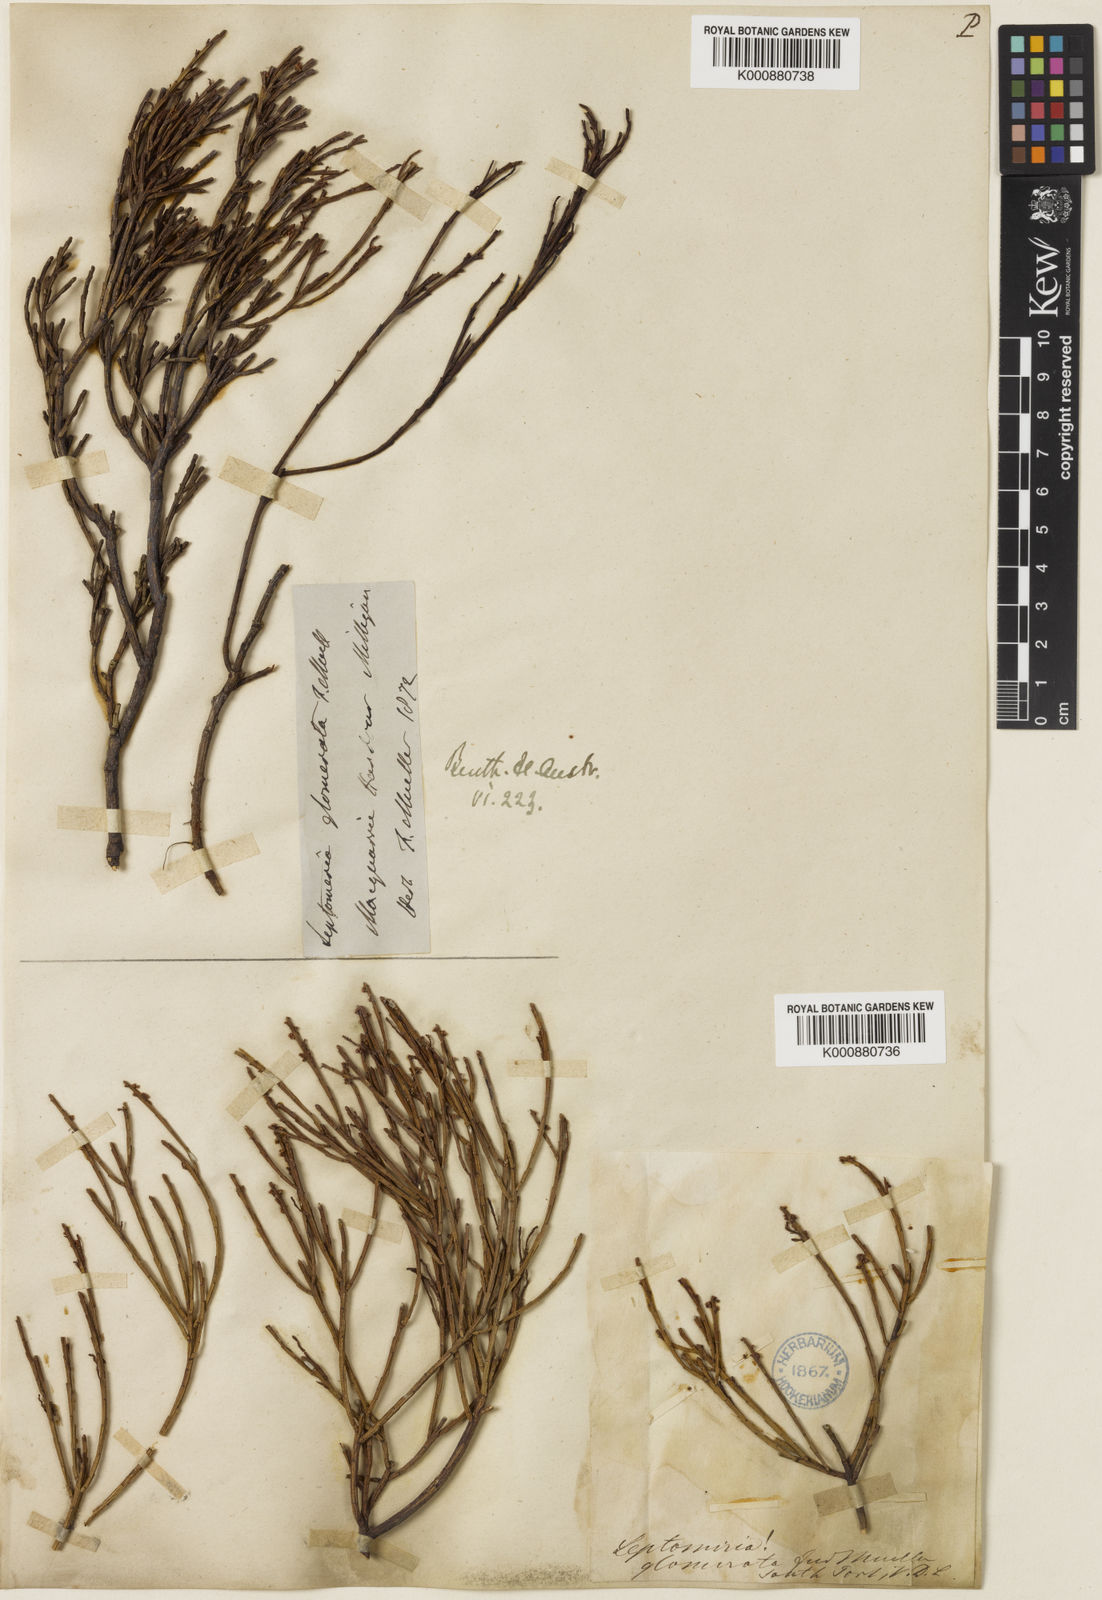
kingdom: Plantae
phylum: Tracheophyta
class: Magnoliopsida
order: Santalales
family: Amphorogynaceae
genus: Leptomeria
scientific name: Leptomeria glomerata
